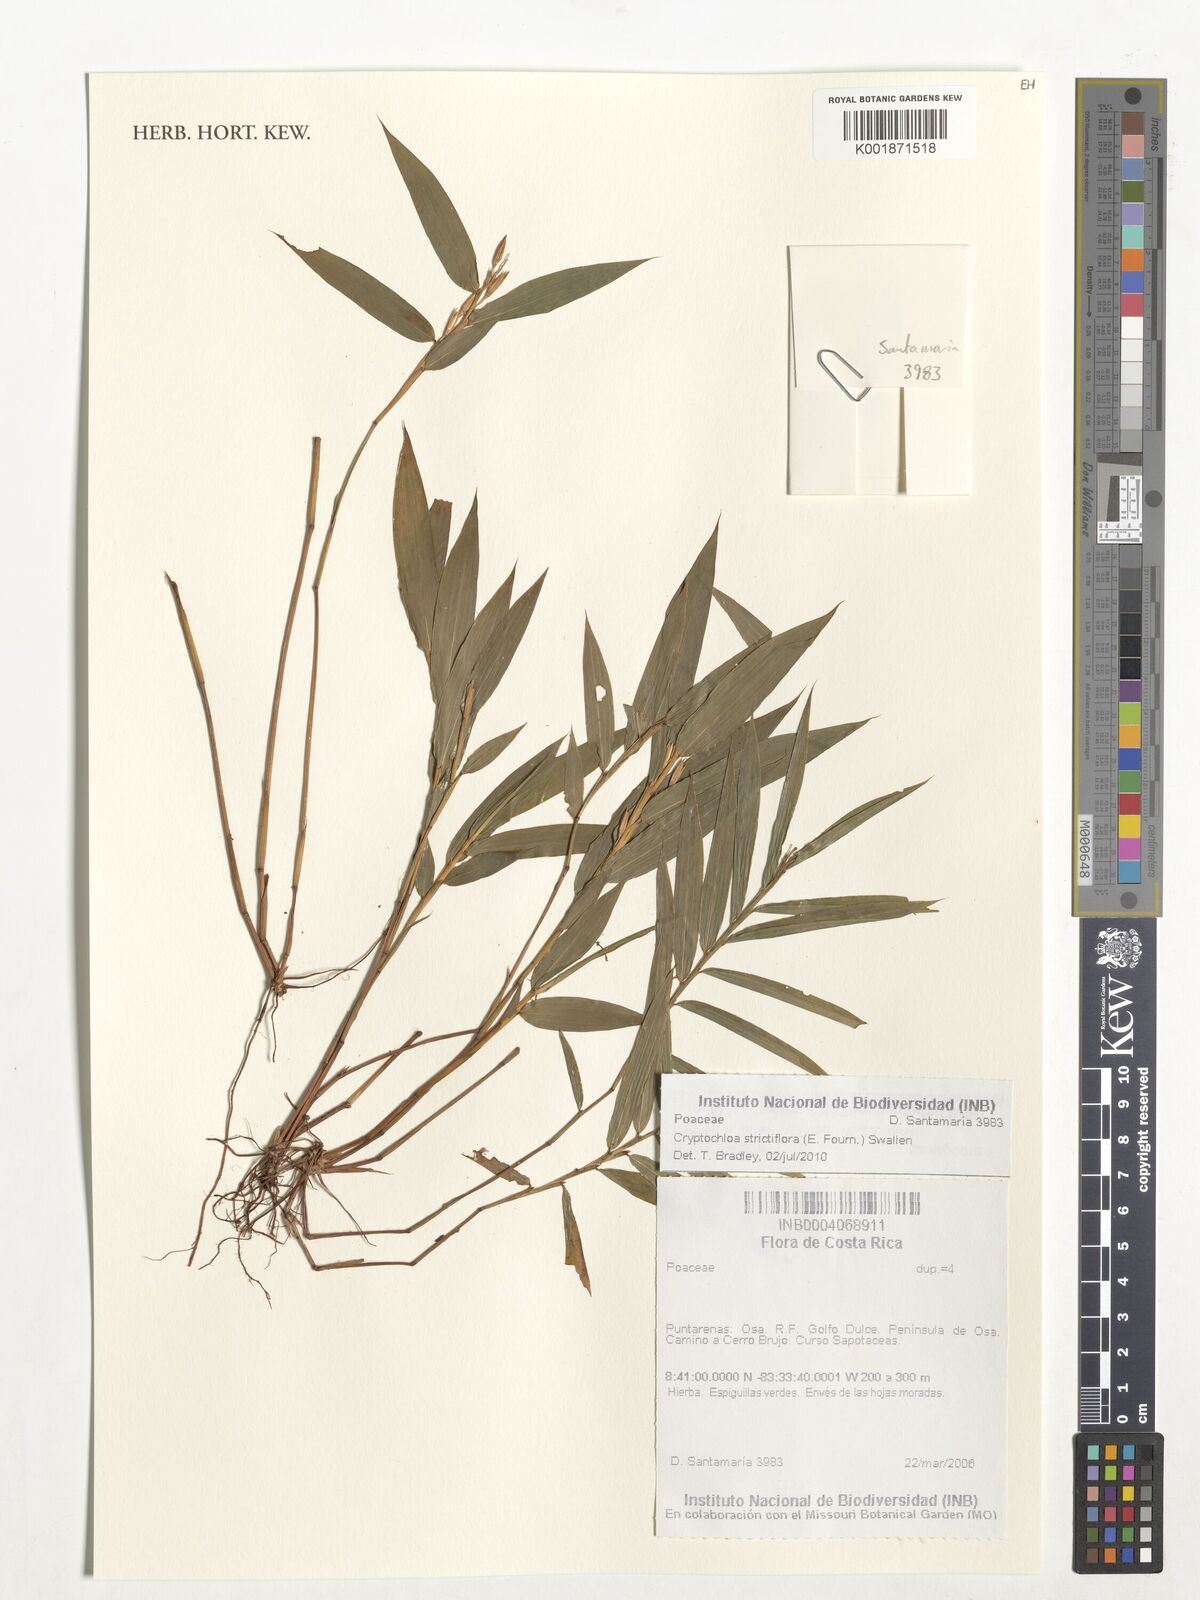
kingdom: Plantae
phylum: Tracheophyta
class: Liliopsida
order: Poales
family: Poaceae
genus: Cryptochloa
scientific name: Cryptochloa strictiflora
